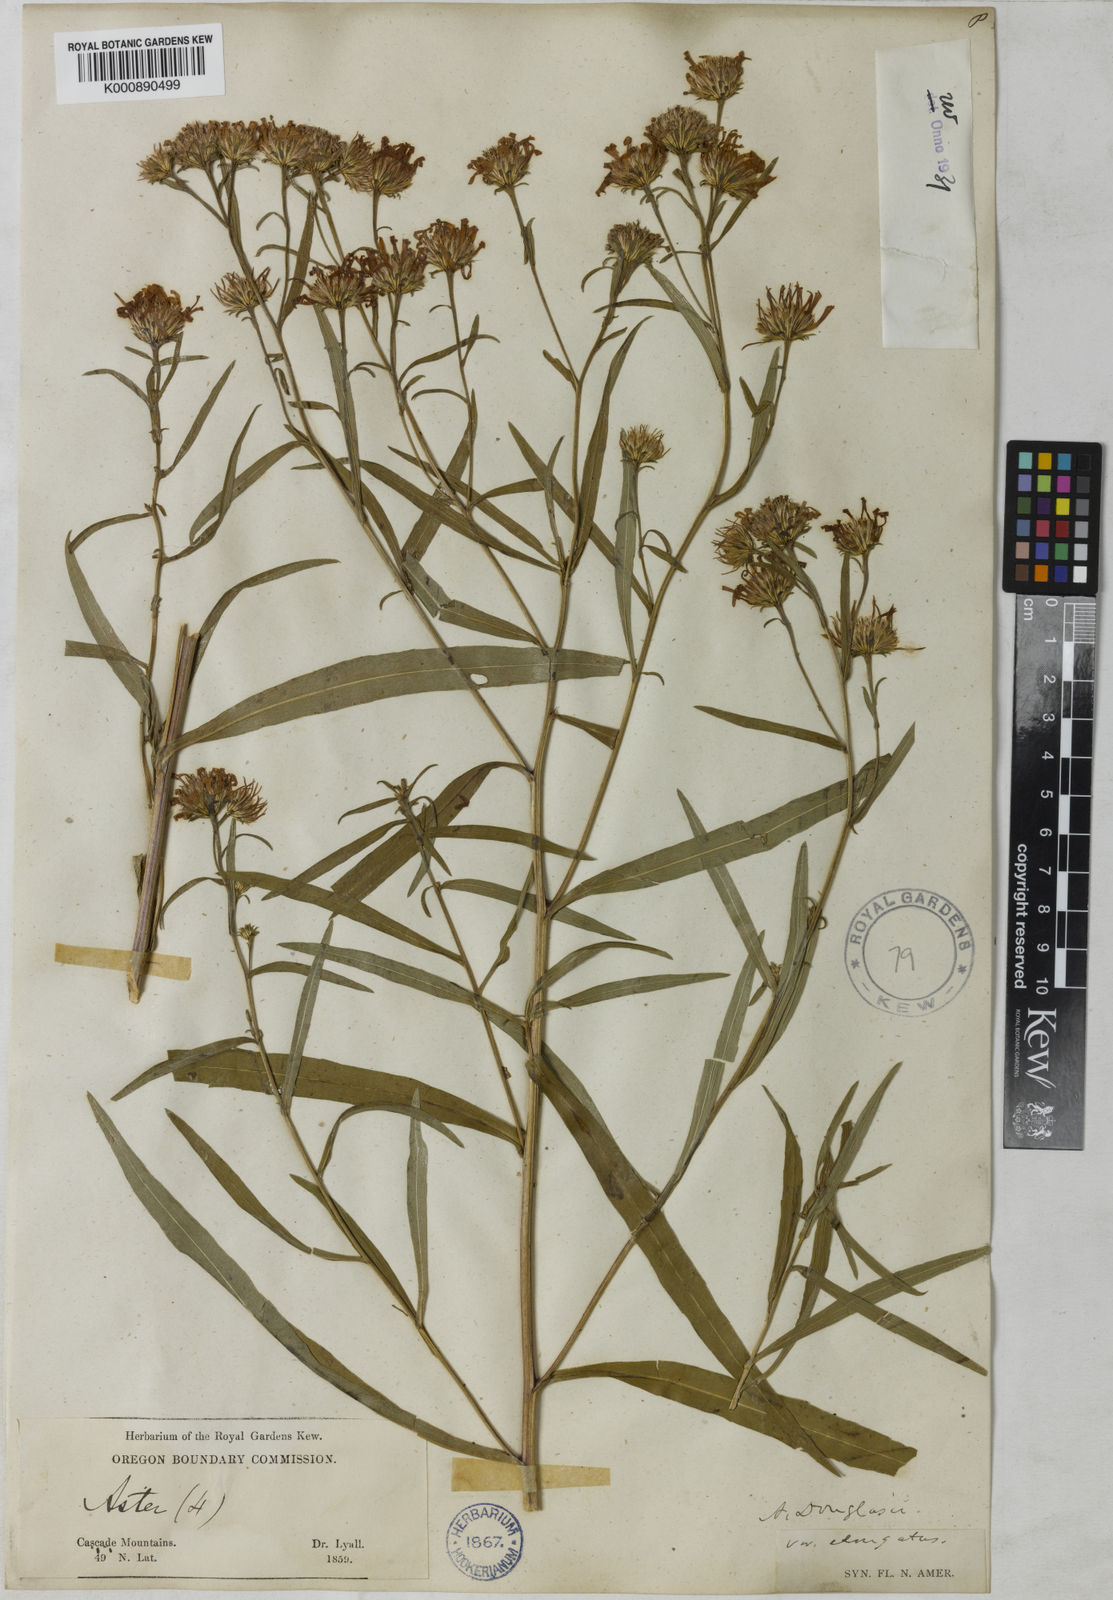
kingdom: Plantae
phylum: Tracheophyta
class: Magnoliopsida
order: Asterales
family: Asteraceae
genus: Aster
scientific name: Aster
